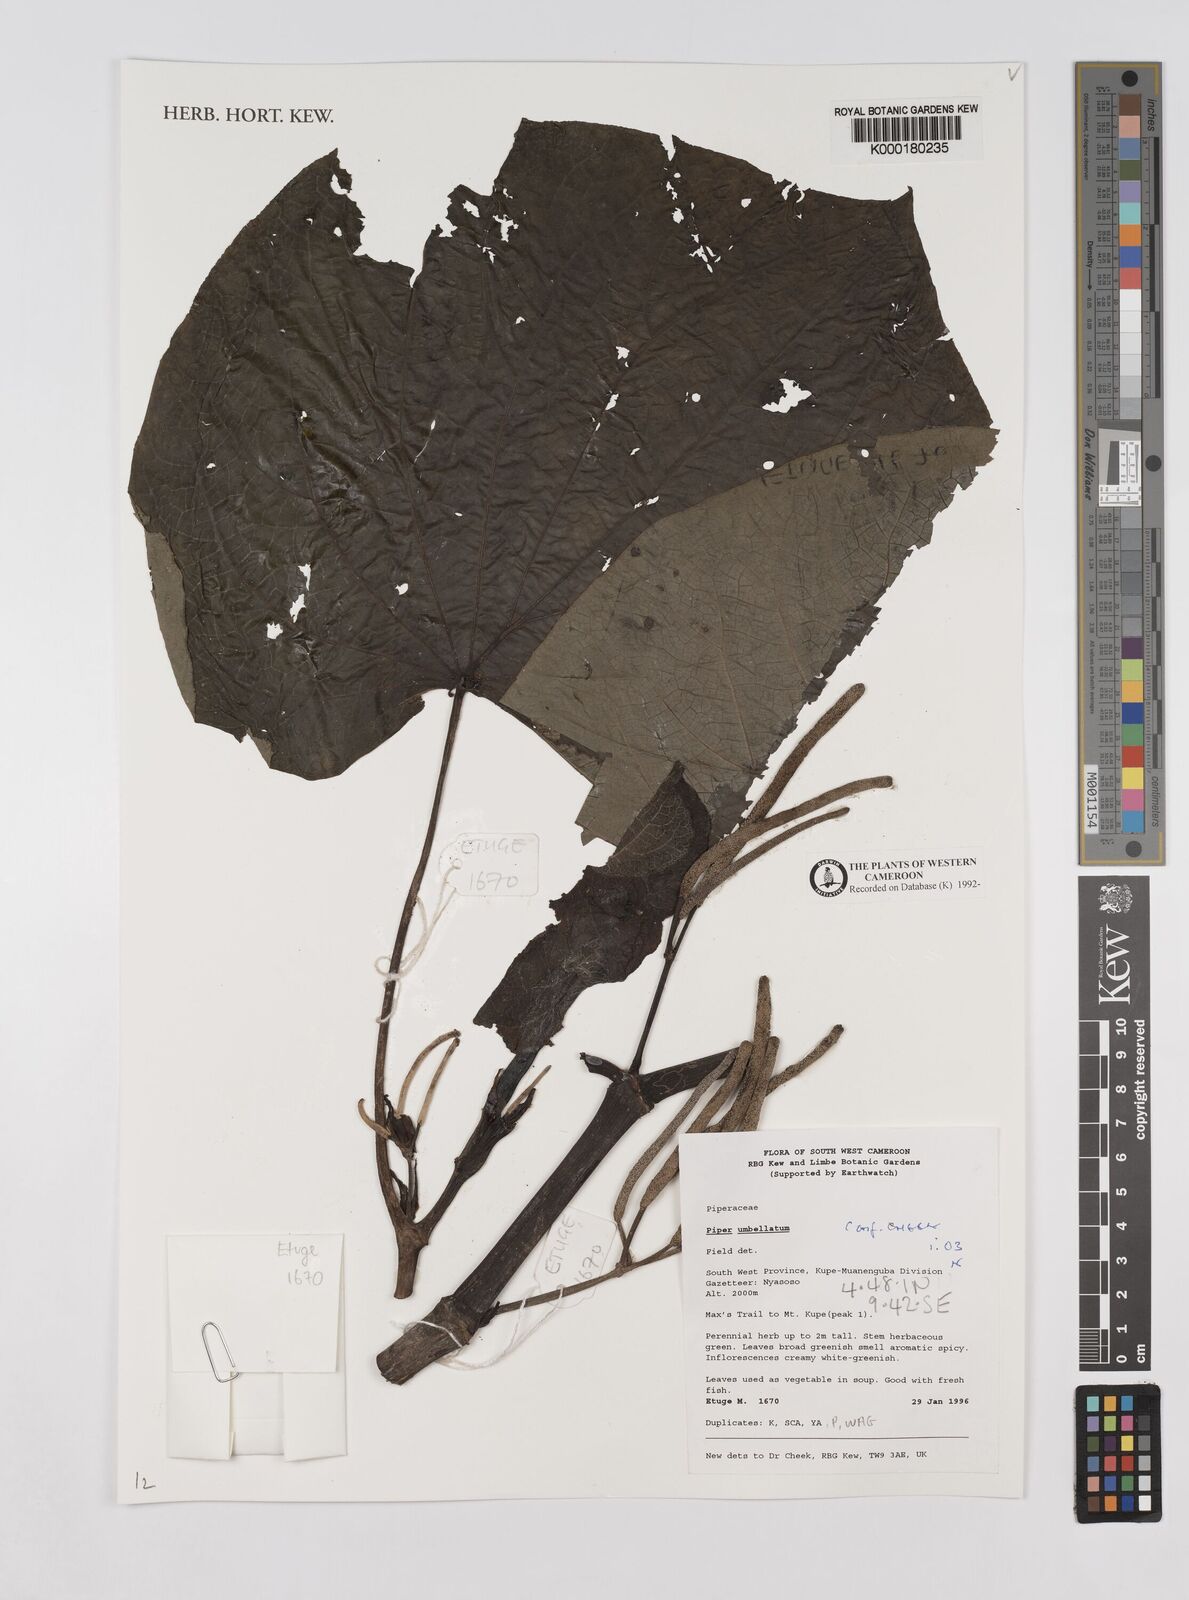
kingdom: Plantae
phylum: Tracheophyta
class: Magnoliopsida
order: Piperales
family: Piperaceae
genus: Piper
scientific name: Piper umbellatum
